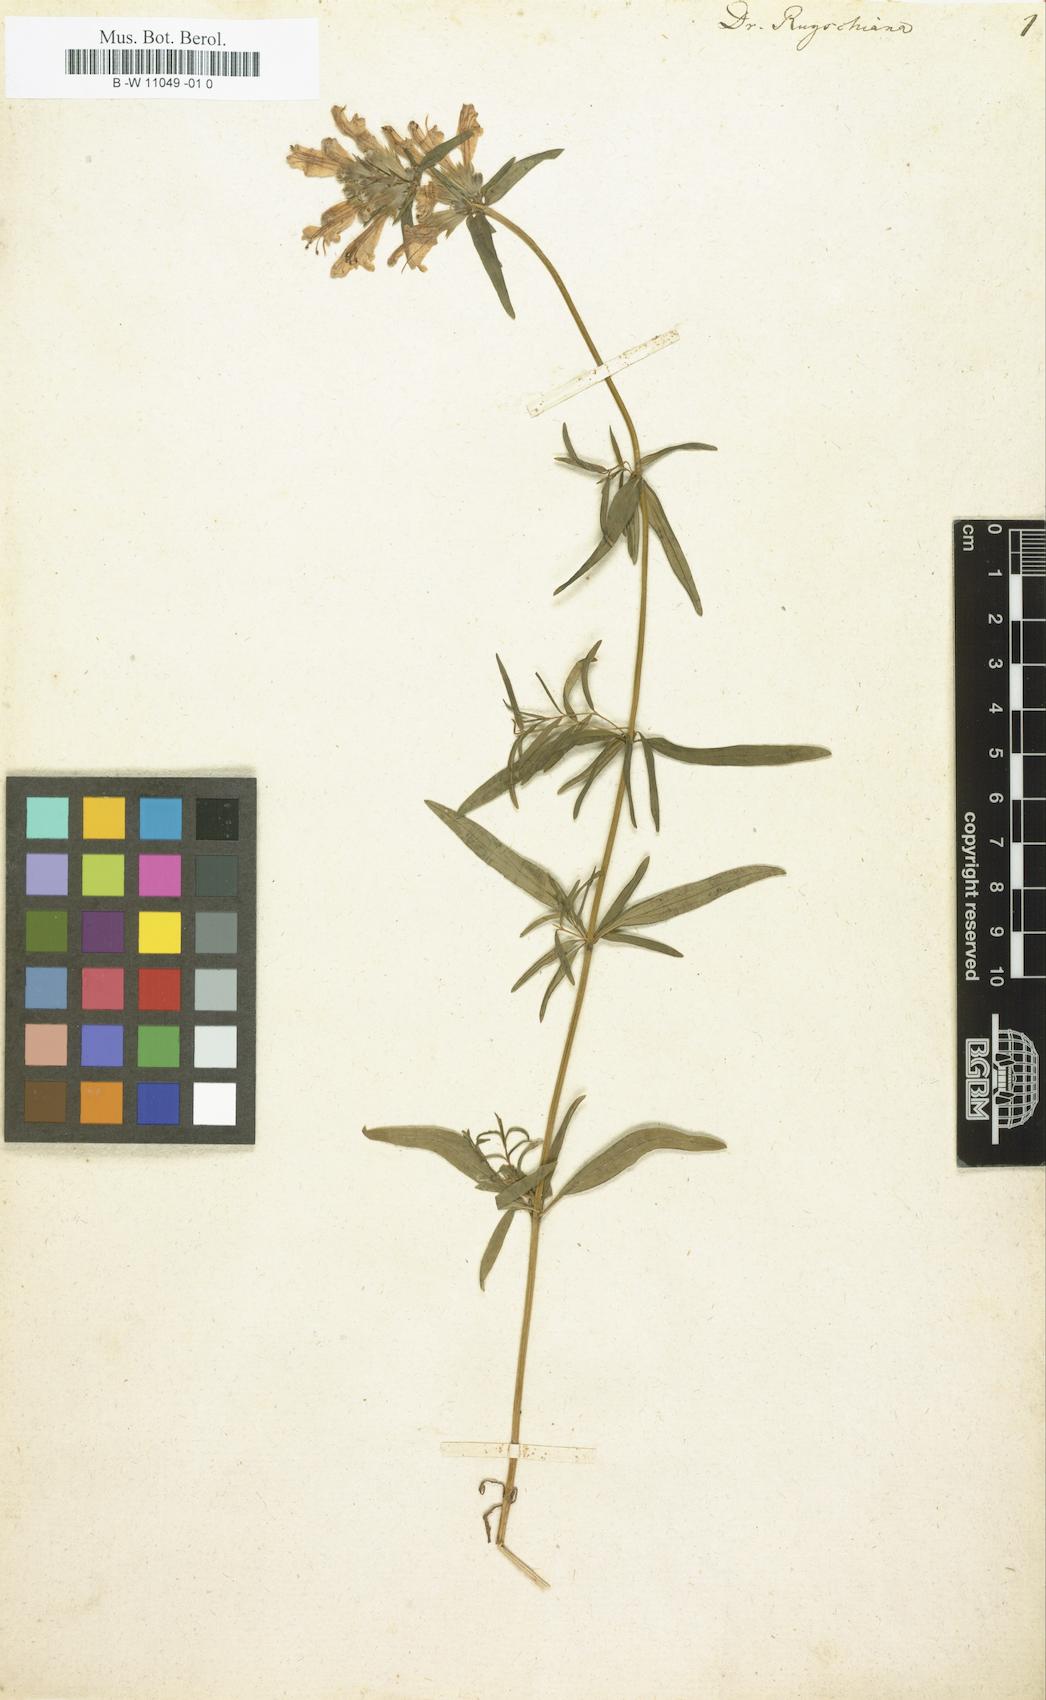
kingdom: Plantae
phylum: Tracheophyta
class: Magnoliopsida
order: Lamiales
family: Lamiaceae
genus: Dracocephalum
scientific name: Dracocephalum ruyschiana
